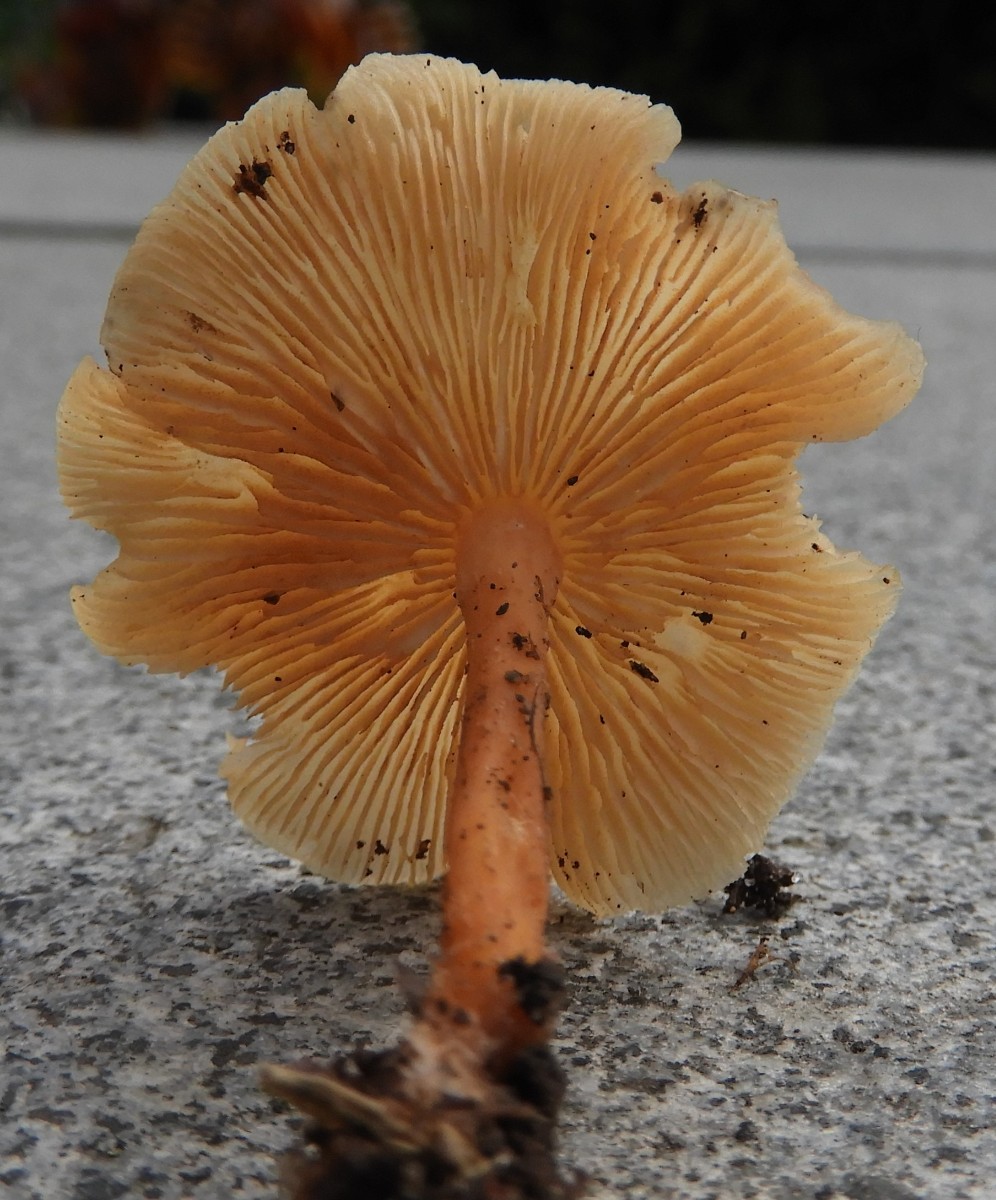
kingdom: Fungi
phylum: Basidiomycota
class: Agaricomycetes
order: Agaricales
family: Omphalotaceae
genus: Gymnopus
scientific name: Gymnopus dryophilus
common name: løv-fladhat
